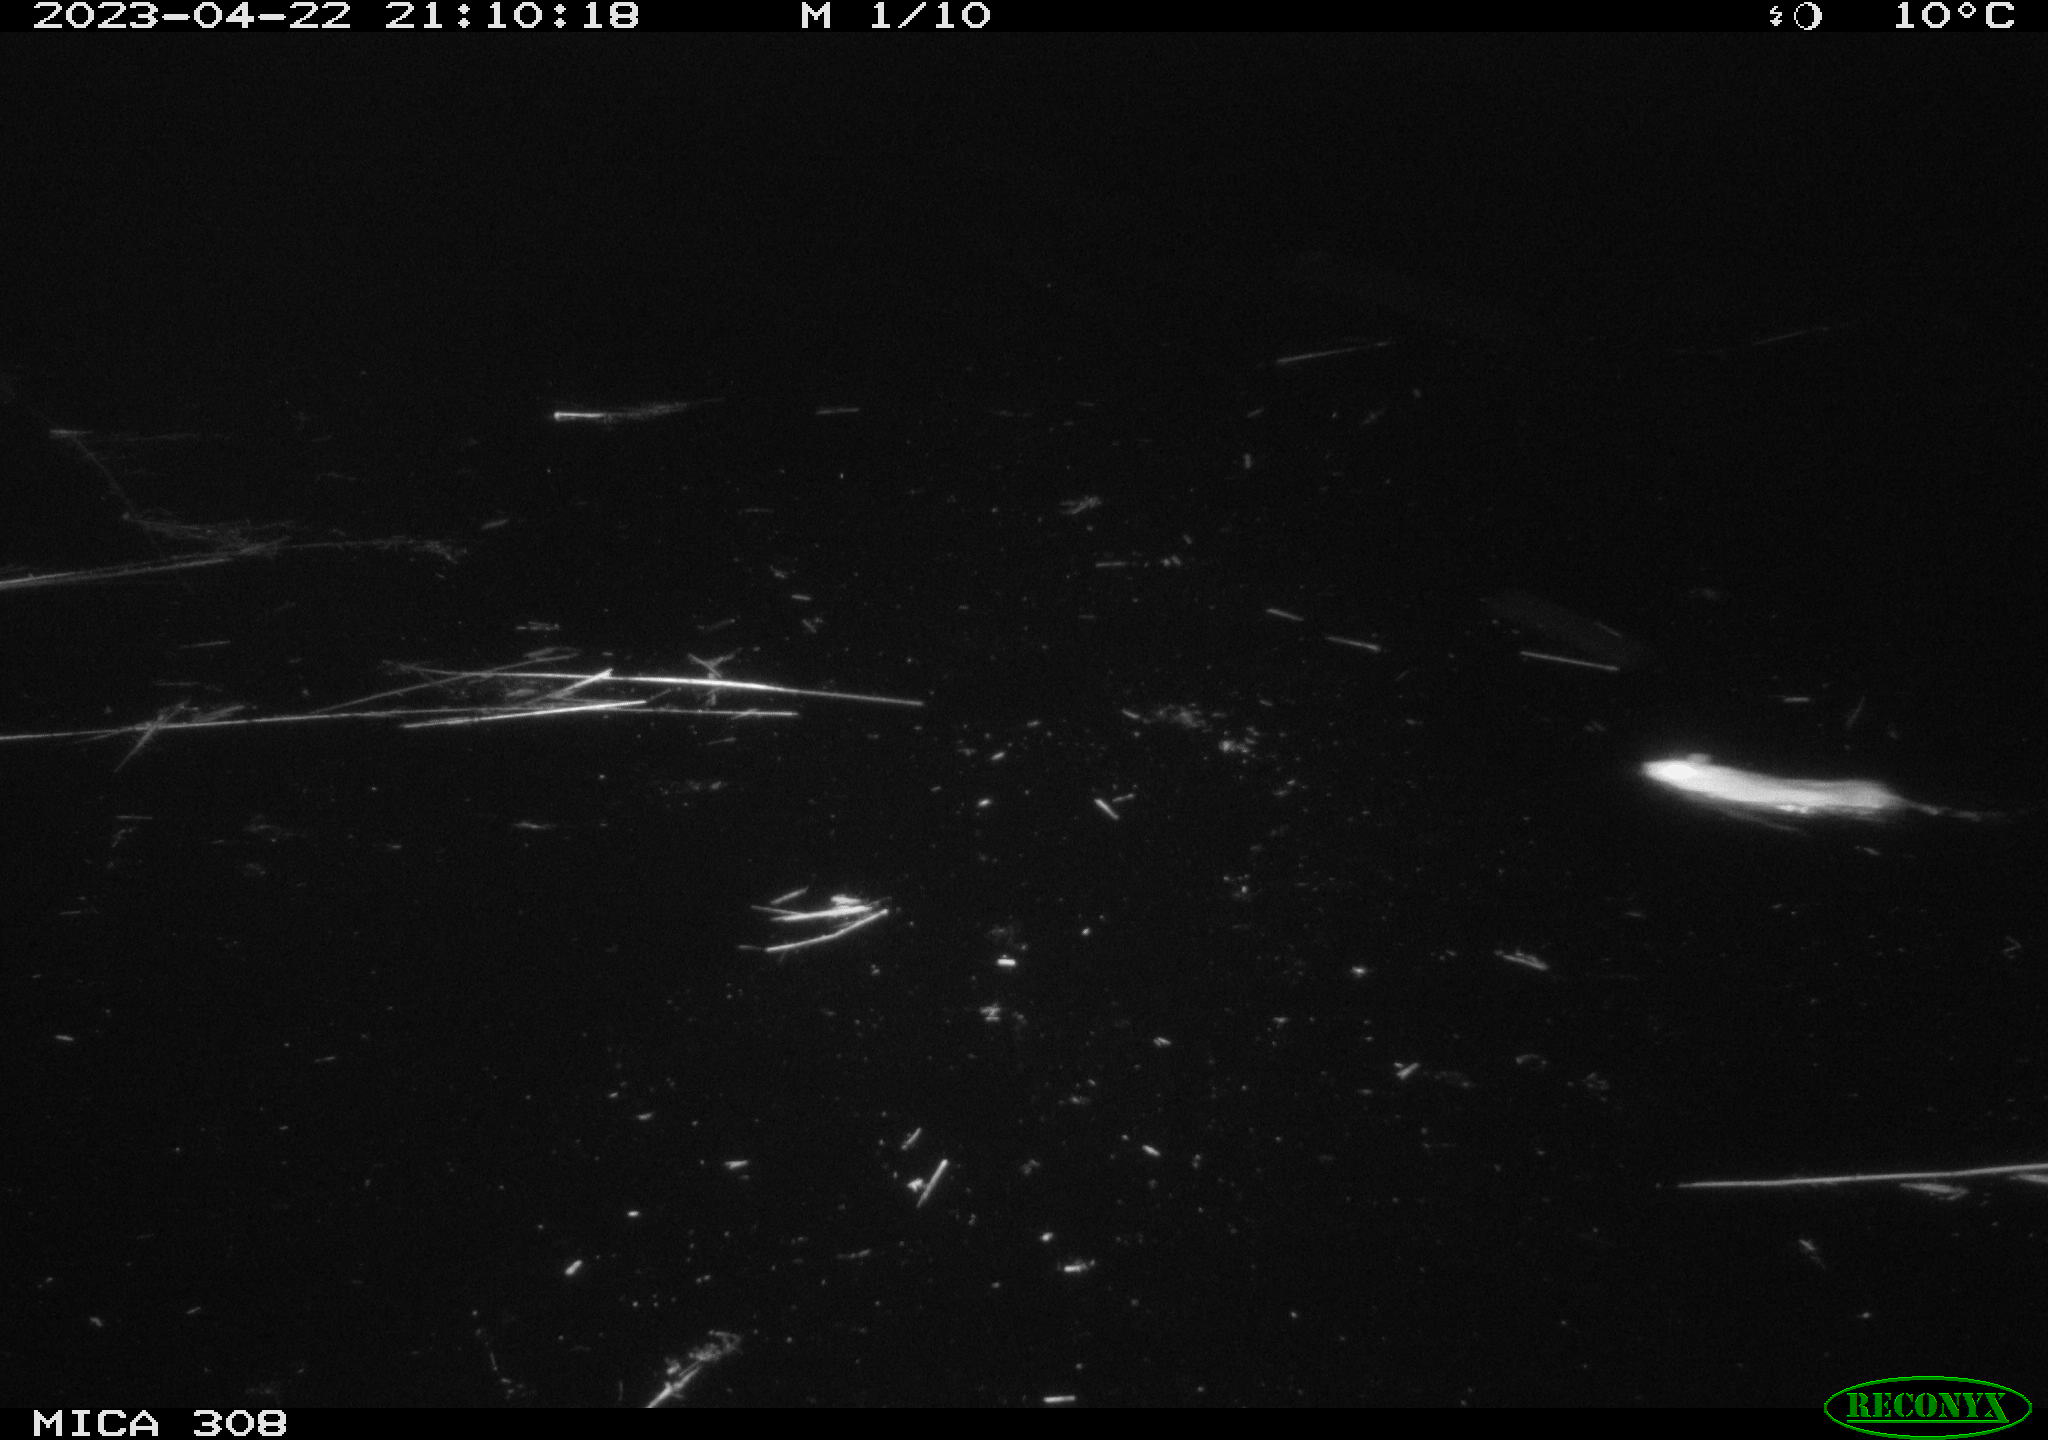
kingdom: Animalia
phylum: Chordata
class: Mammalia
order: Rodentia
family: Muridae
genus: Rattus
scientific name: Rattus norvegicus
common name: Brown rat
